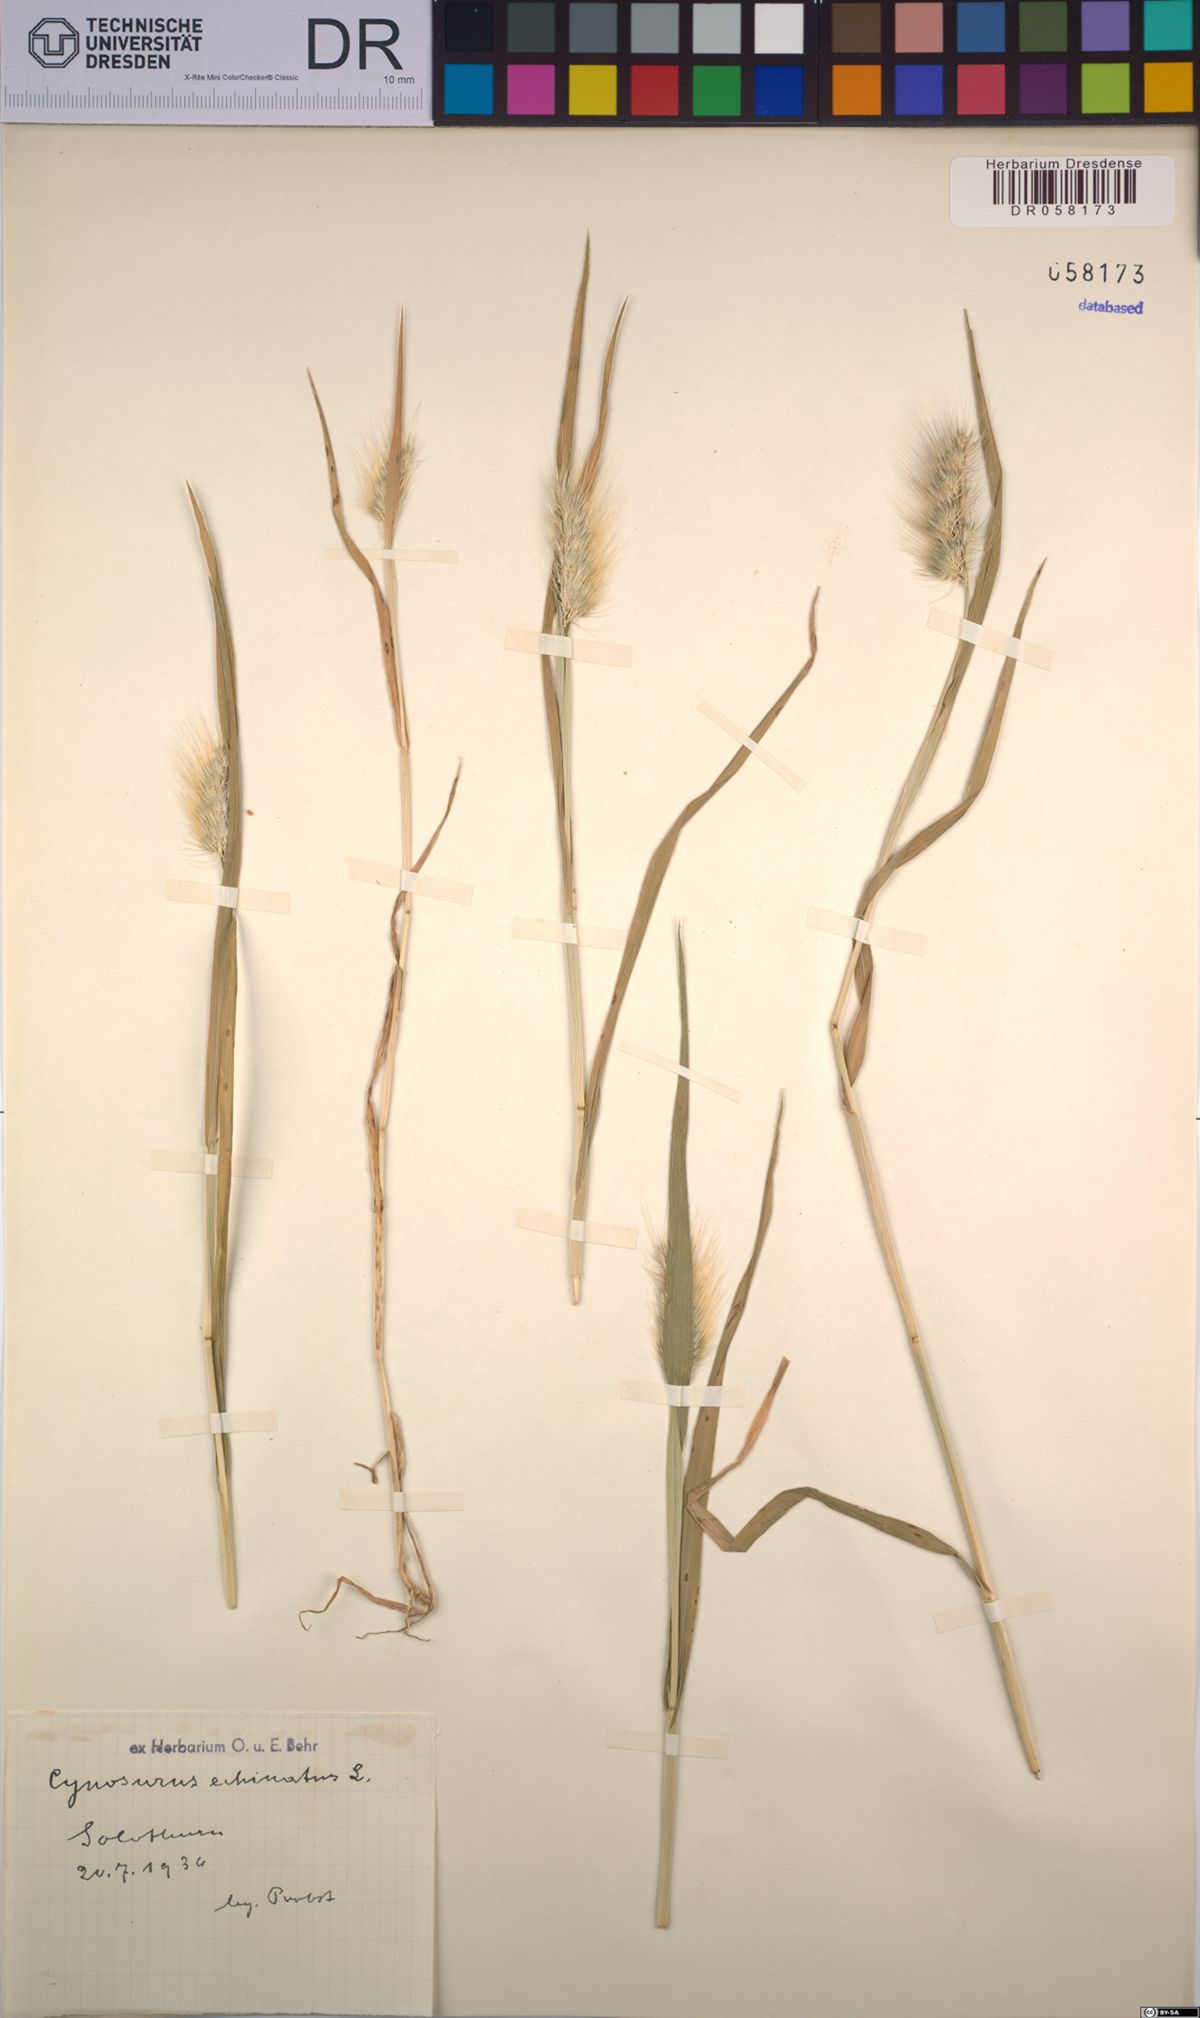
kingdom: Plantae
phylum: Tracheophyta
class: Liliopsida
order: Poales
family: Poaceae
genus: Cynosurus
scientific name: Cynosurus echinatus
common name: Rough dog's-tail
